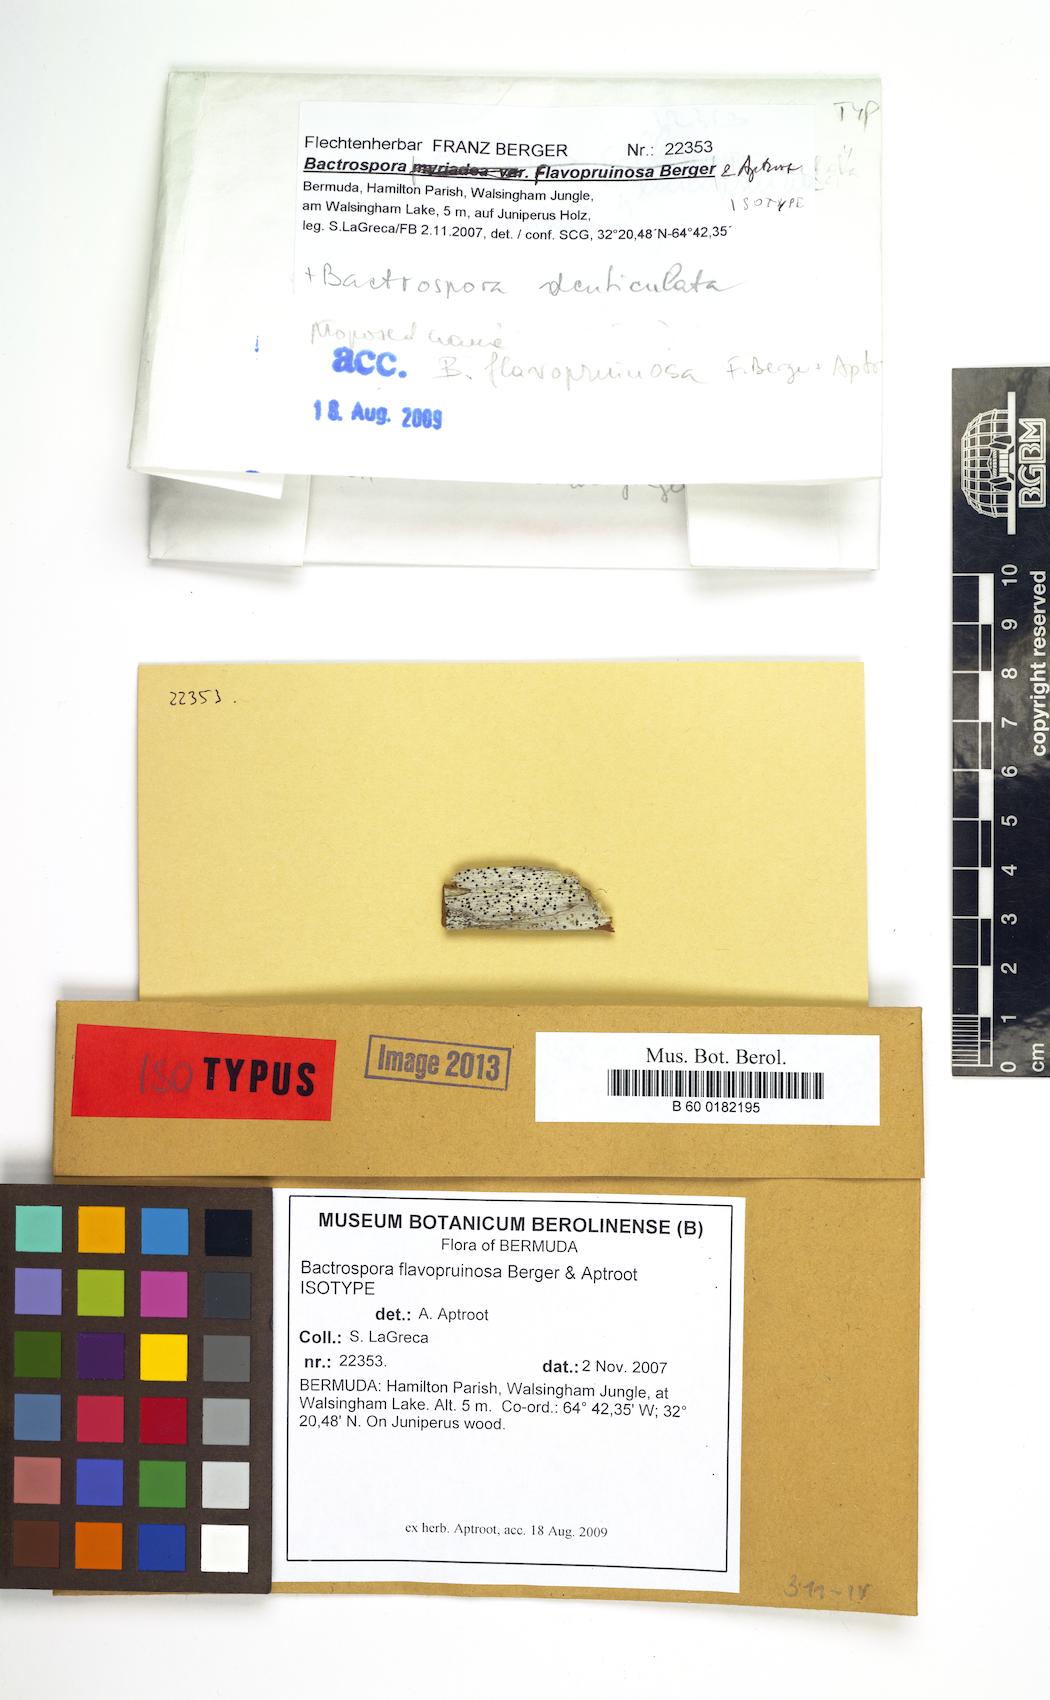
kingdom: Fungi
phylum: Ascomycota
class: Arthoniomycetes
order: Arthoniales
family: Roccellaceae
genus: Bactrospora
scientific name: Bactrospora flavopruinosa
